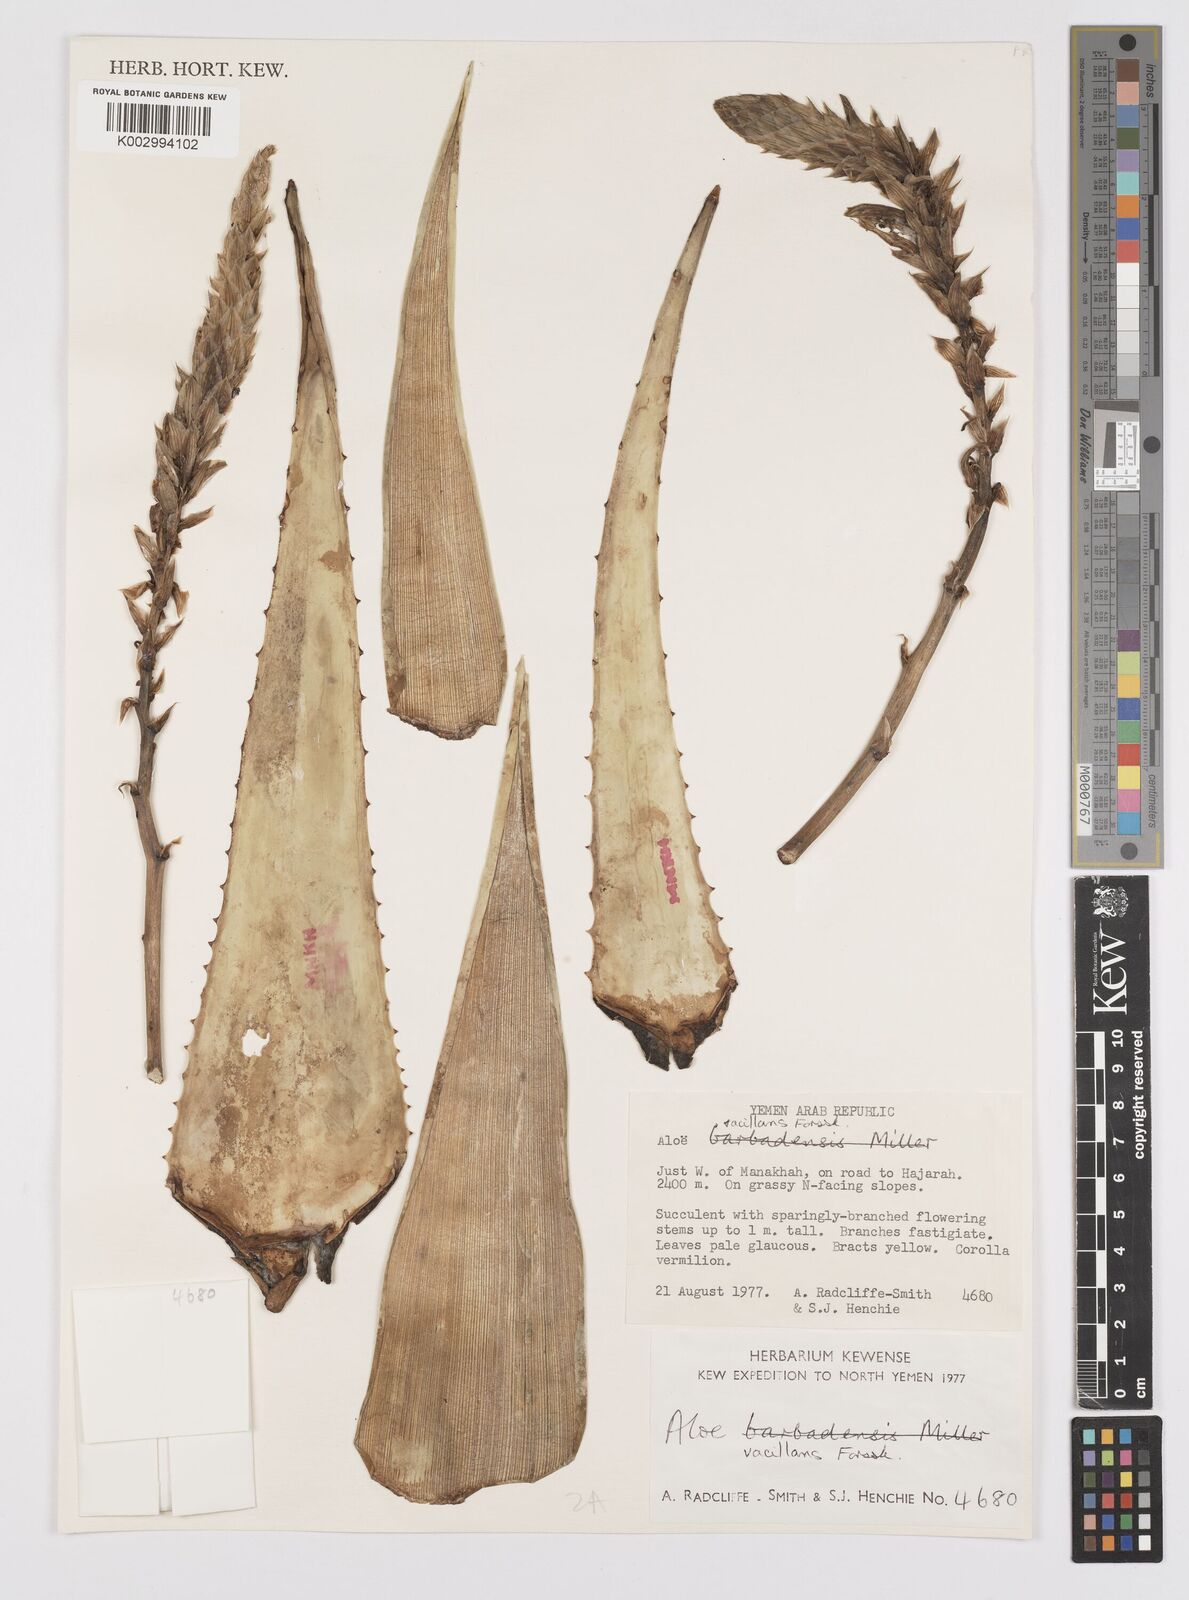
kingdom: Plantae
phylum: Tracheophyta
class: Liliopsida
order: Asparagales
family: Asphodelaceae
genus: Aloe
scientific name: Aloe vacillans
